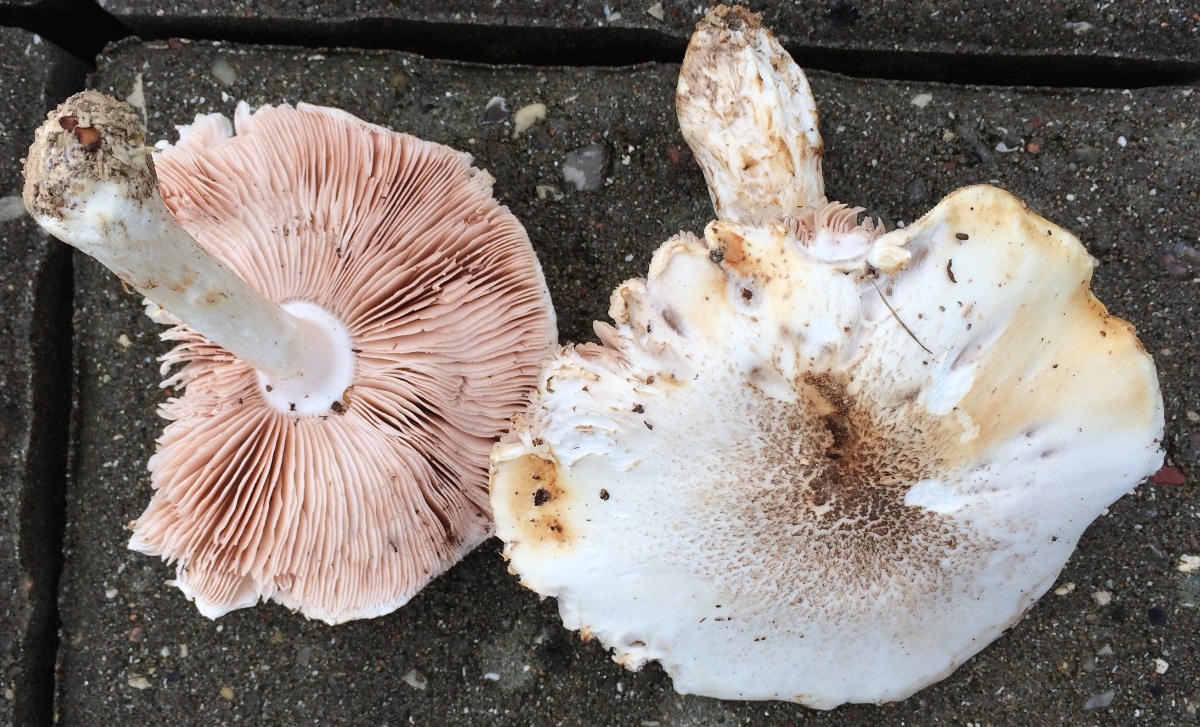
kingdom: Fungi
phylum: Basidiomycota
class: Agaricomycetes
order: Agaricales
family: Pluteaceae
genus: Pluteus
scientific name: Pluteus petasatus
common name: savsmulds-skærmhat
